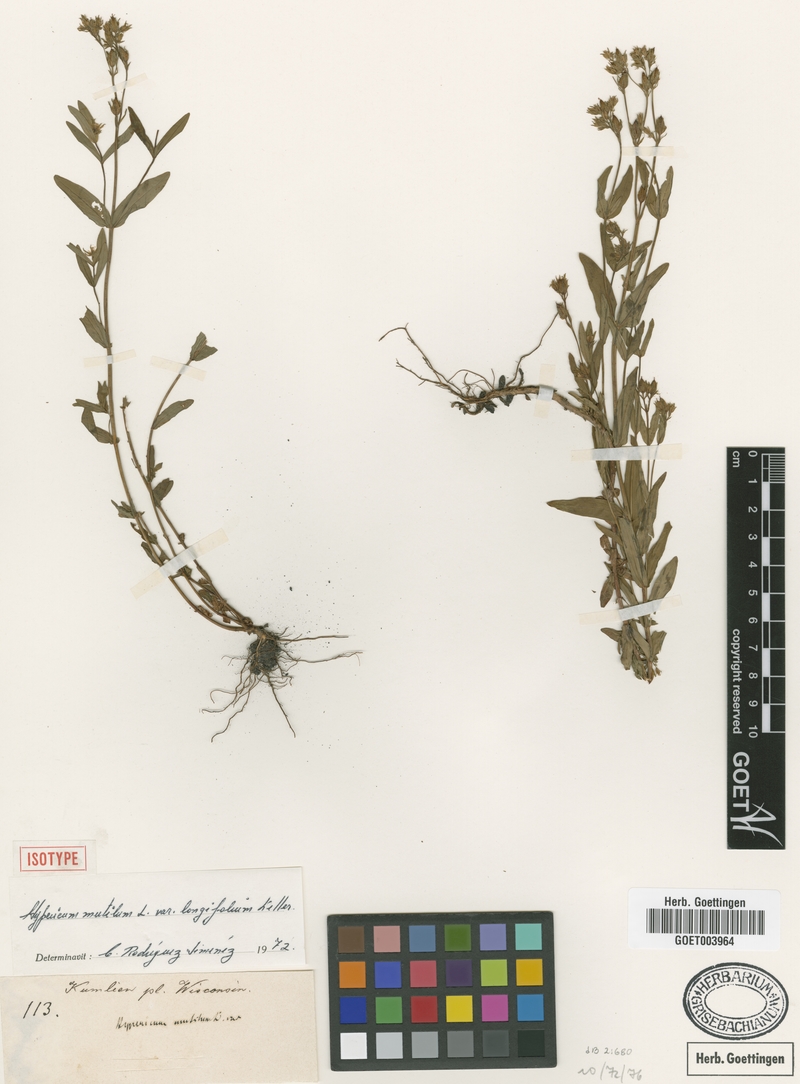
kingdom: Plantae
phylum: Tracheophyta
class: Magnoliopsida
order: Malpighiales
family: Hypericaceae
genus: Hypericum
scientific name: Hypericum mutilum
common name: Dwarf st. john's-wort
